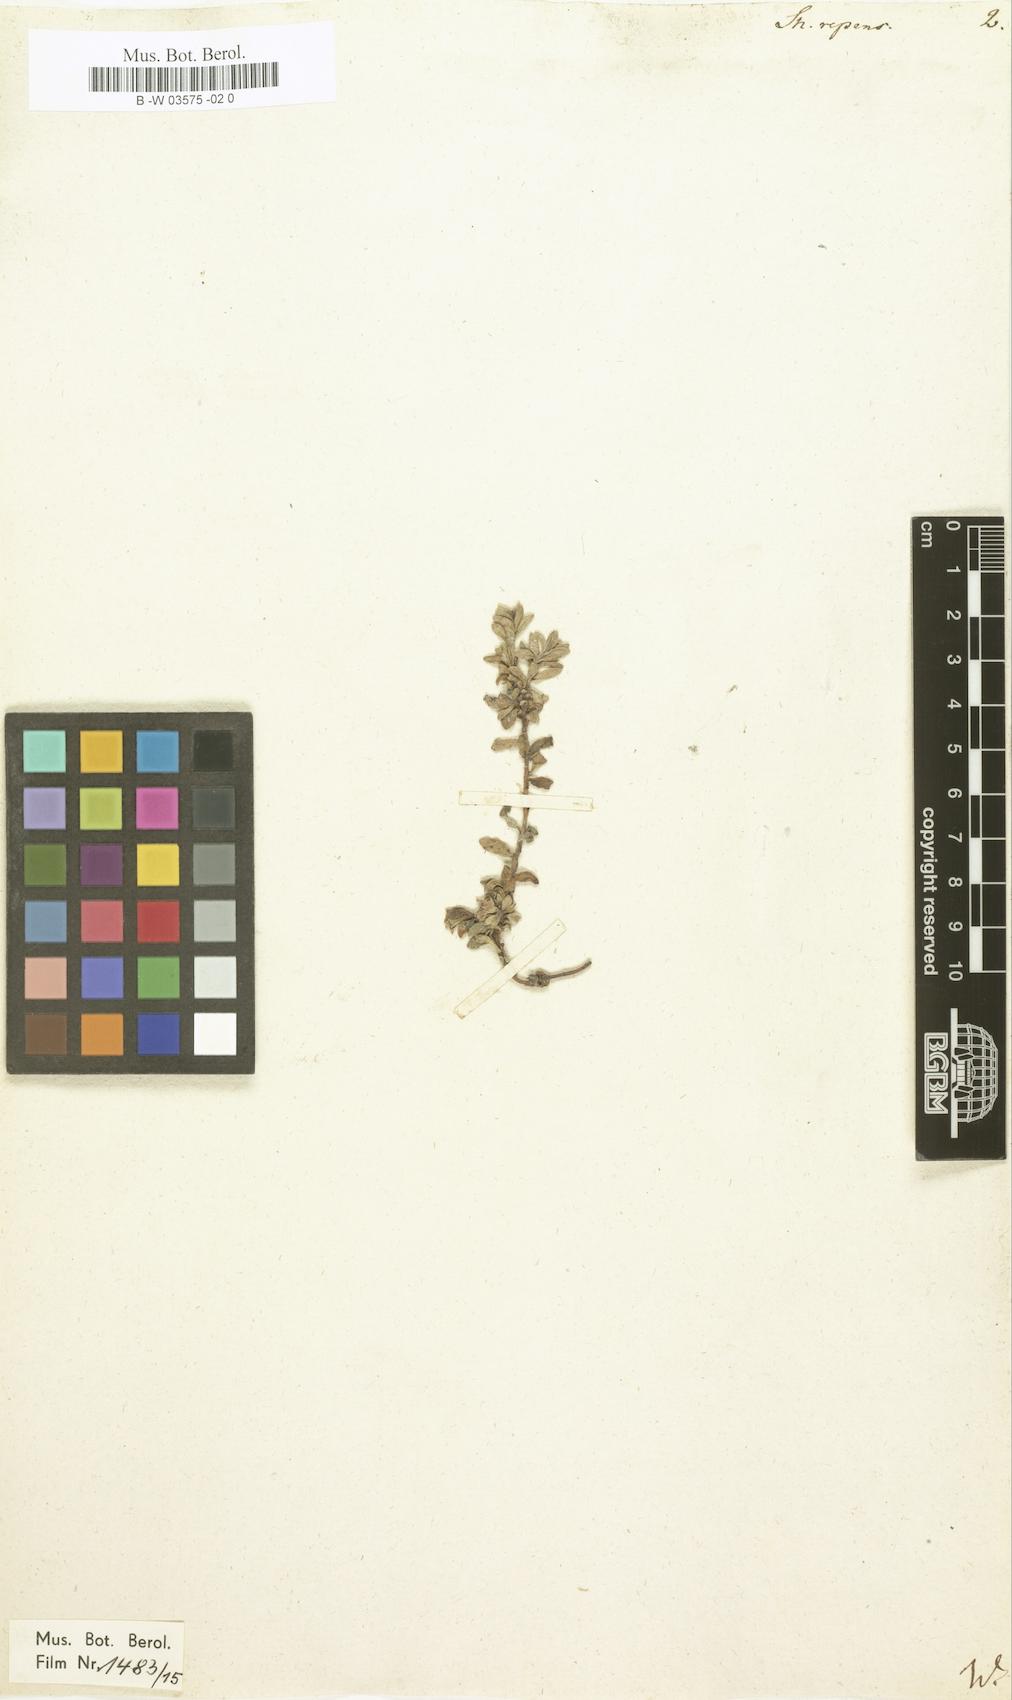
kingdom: Plantae
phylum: Tracheophyta
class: Magnoliopsida
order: Ericales
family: Primulaceae
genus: Samolus
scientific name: Samolus repens
